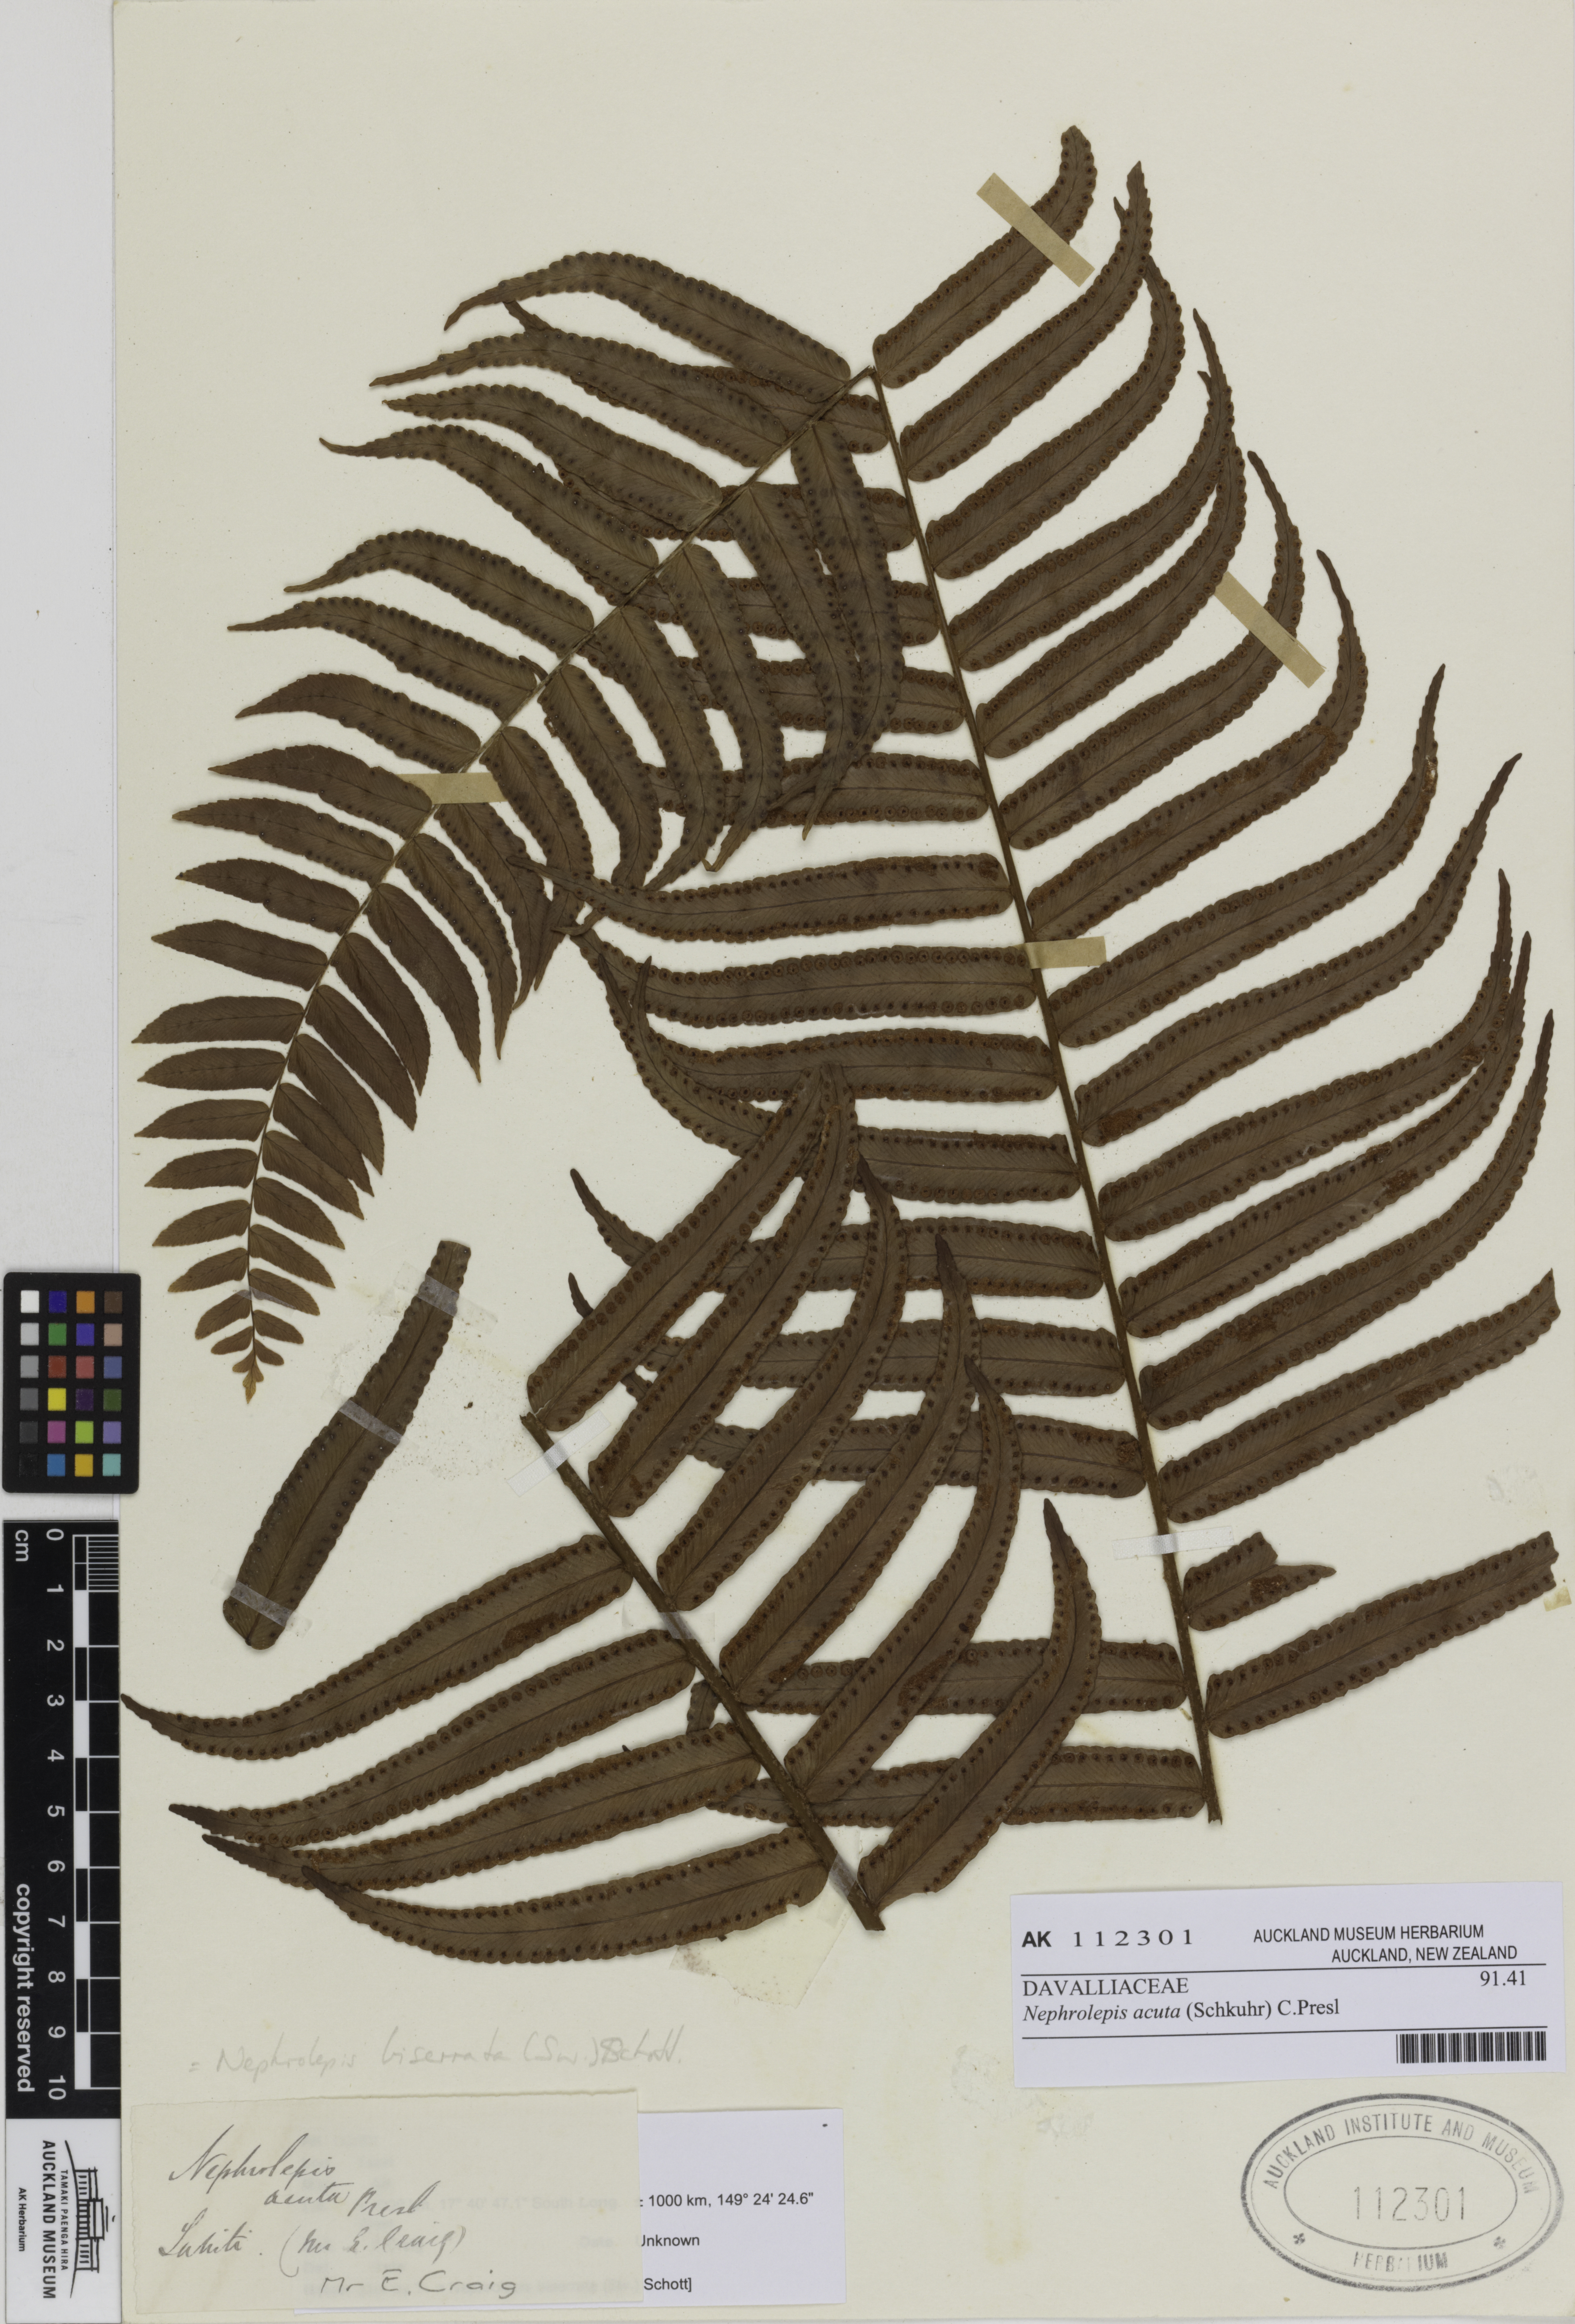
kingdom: Plantae
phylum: Tracheophyta
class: Polypodiopsida
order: Polypodiales
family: Nephrolepidaceae
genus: Nephrolepis
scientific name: Nephrolepis biserrata
